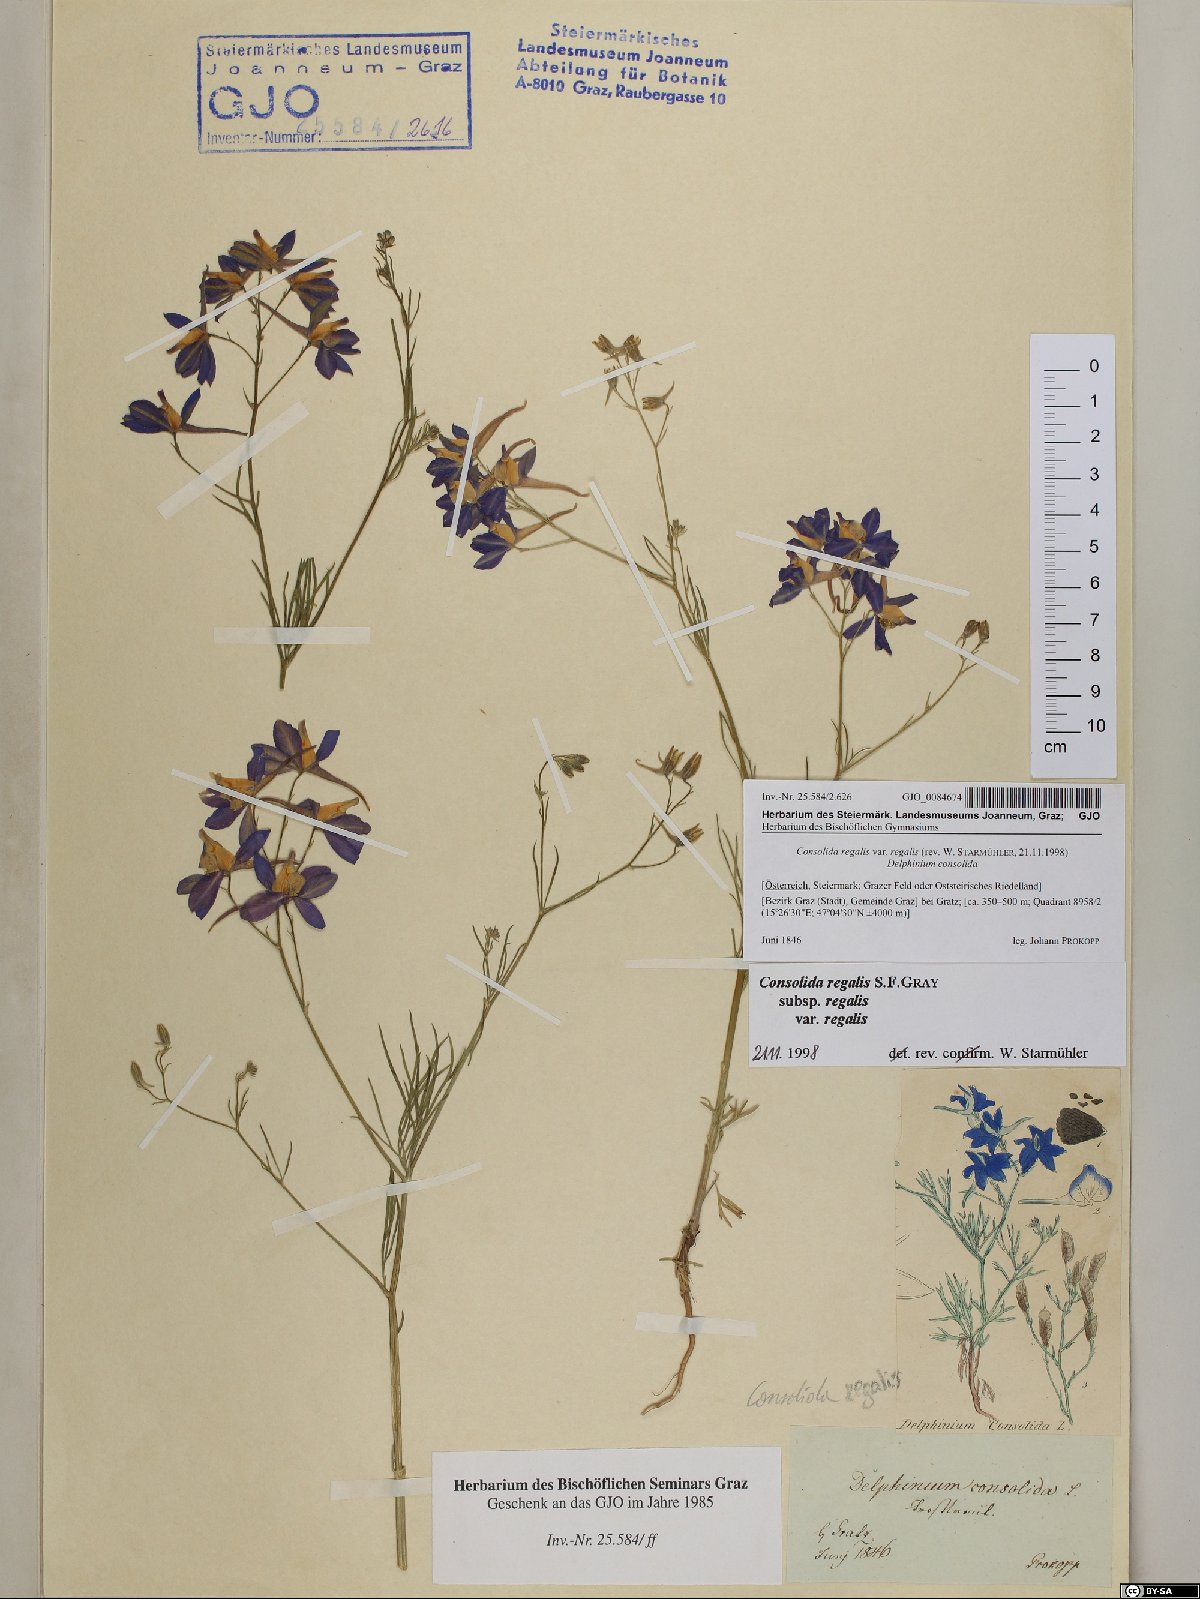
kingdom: Plantae
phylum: Tracheophyta
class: Magnoliopsida
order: Ranunculales
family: Ranunculaceae
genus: Delphinium
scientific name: Delphinium consolida
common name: Branching larkspur
